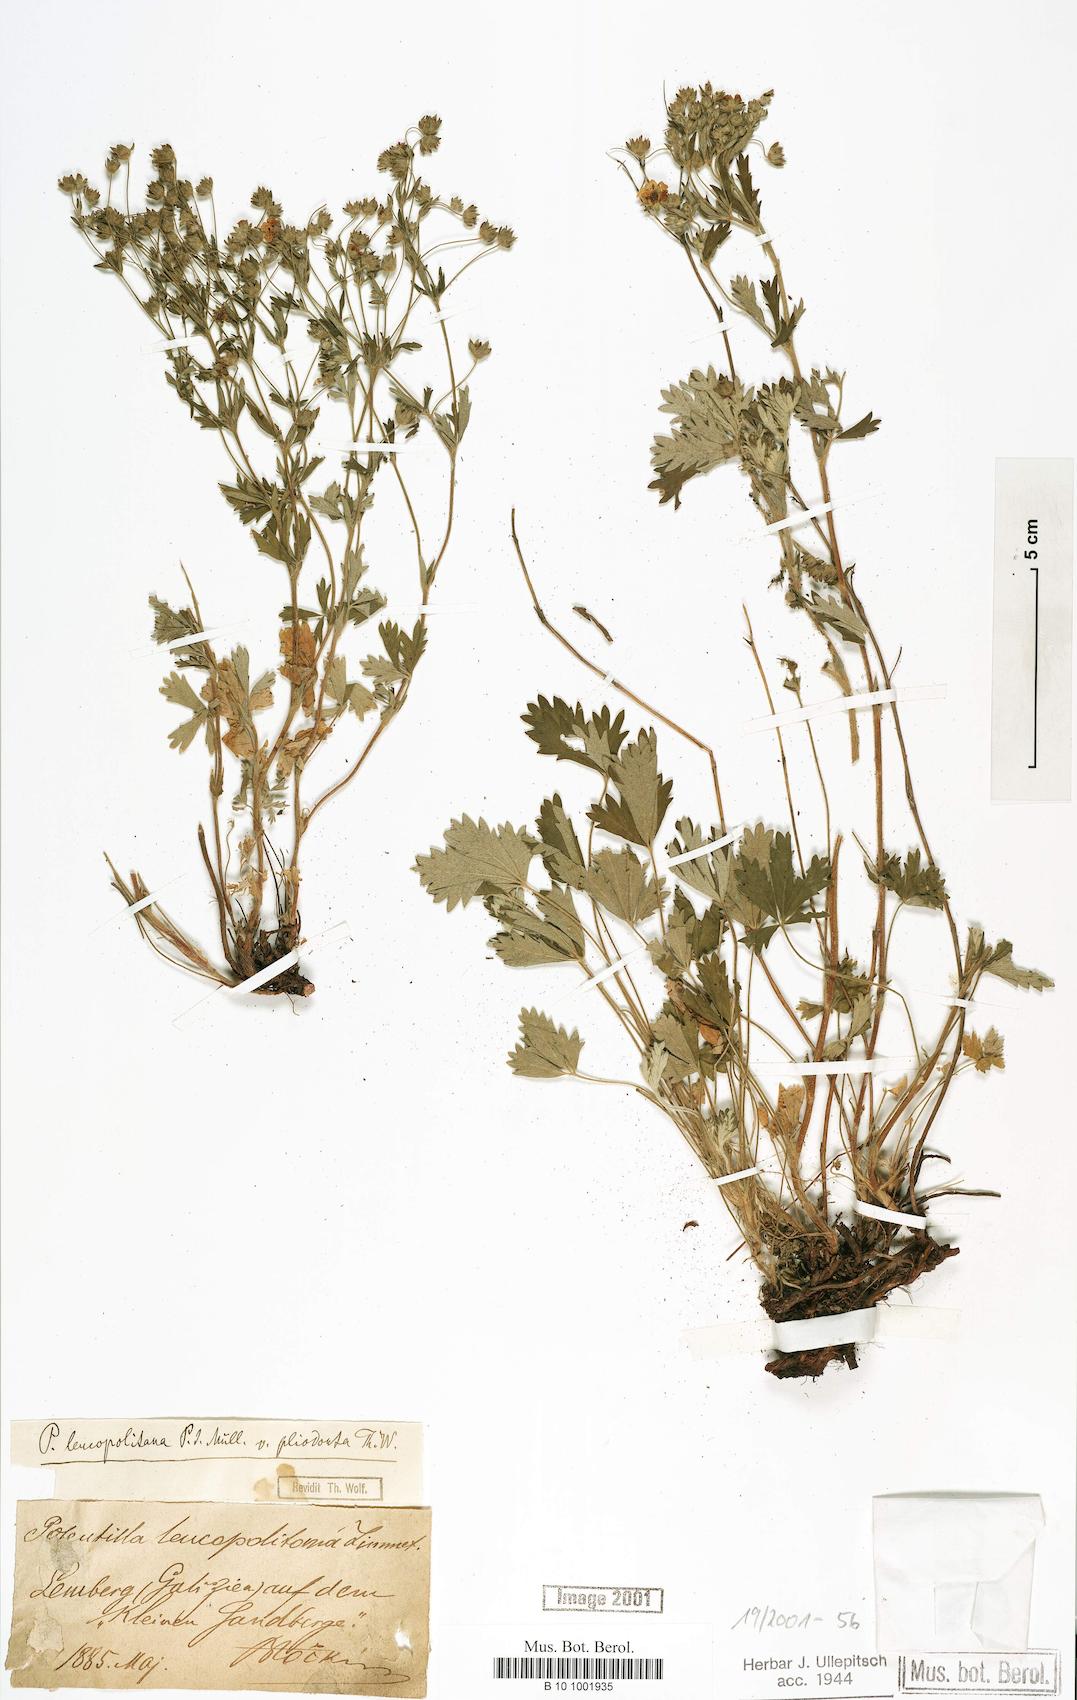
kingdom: Plantae
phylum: Tracheophyta
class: Magnoliopsida
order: Rosales
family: Rosaceae
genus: Potentilla
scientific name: Potentilla leucopolitana
